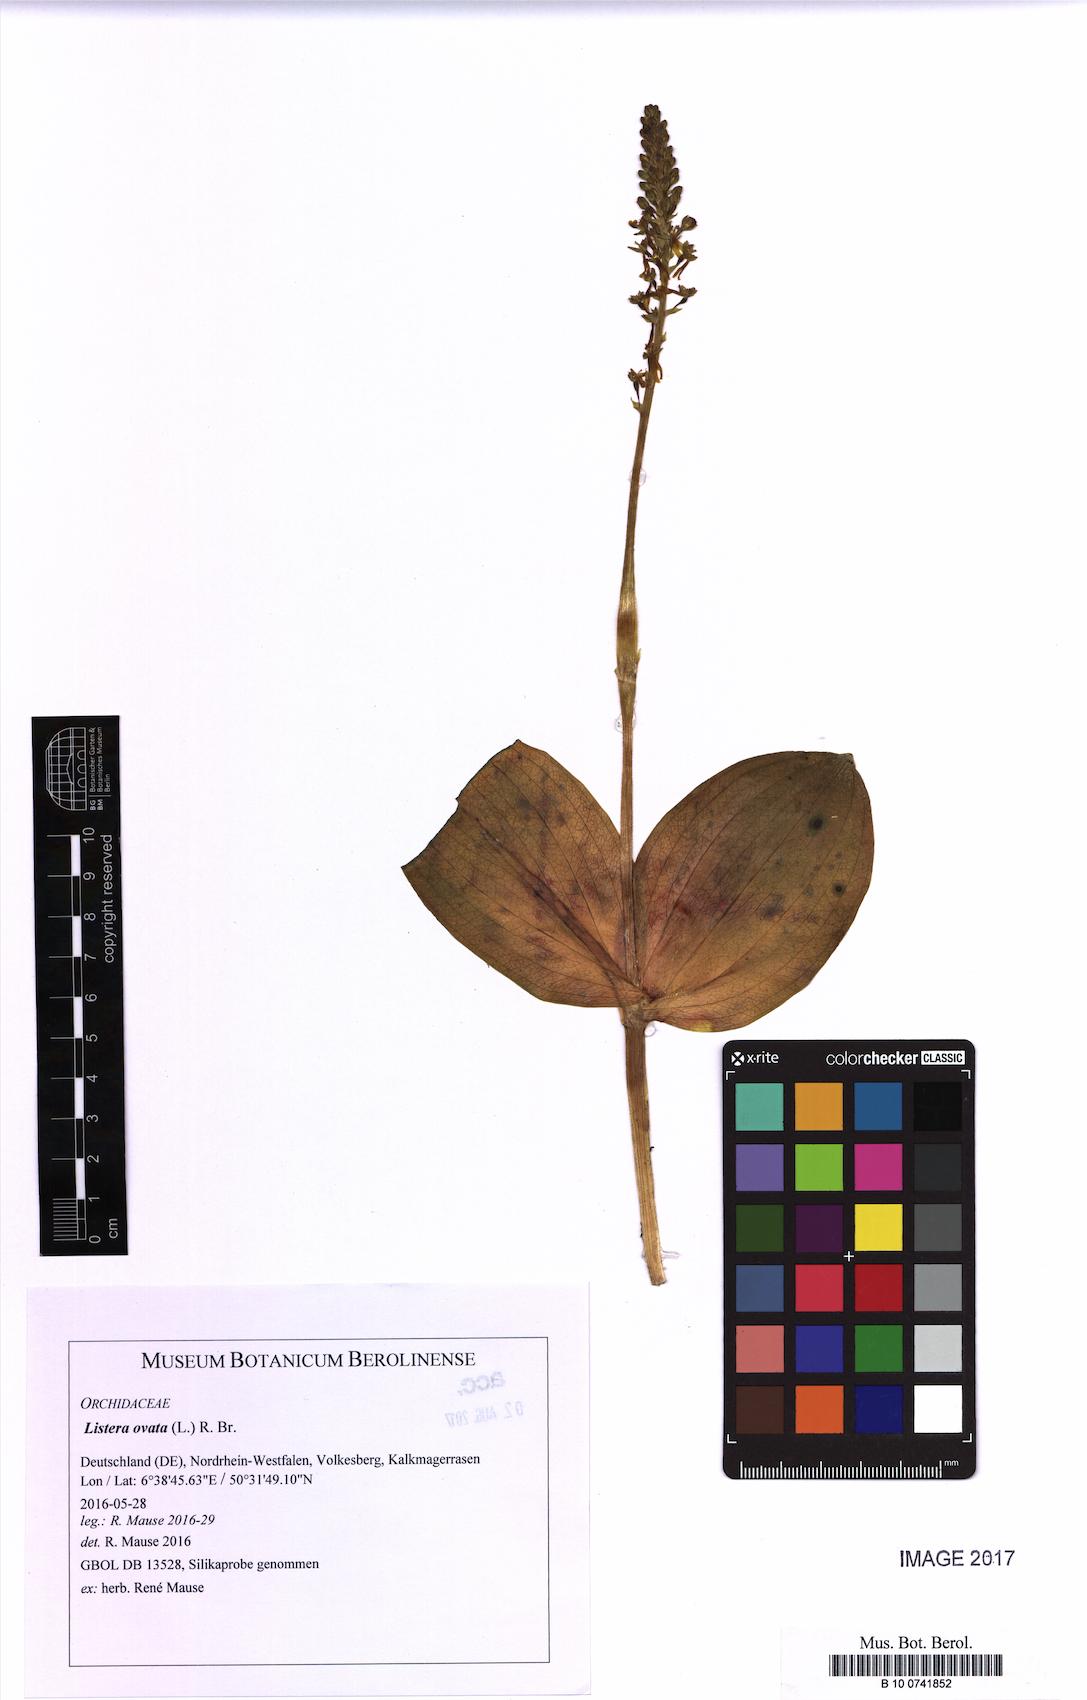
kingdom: Plantae
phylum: Tracheophyta
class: Liliopsida
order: Asparagales
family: Orchidaceae
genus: Neottia
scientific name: Neottia ovata
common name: Common twayblade
